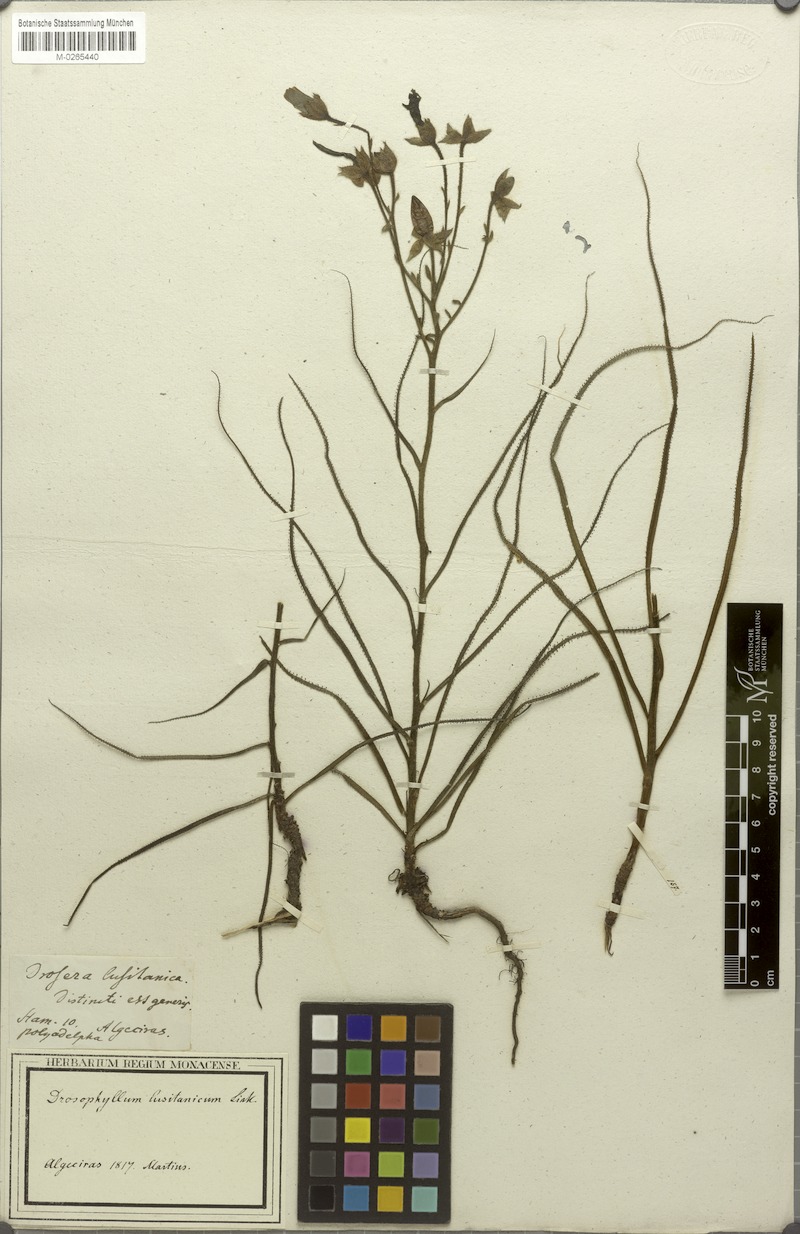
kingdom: Plantae
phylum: Tracheophyta
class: Magnoliopsida
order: Caryophyllales
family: Drosophyllaceae
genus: Drosophyllum
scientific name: Drosophyllum lusitanicum
